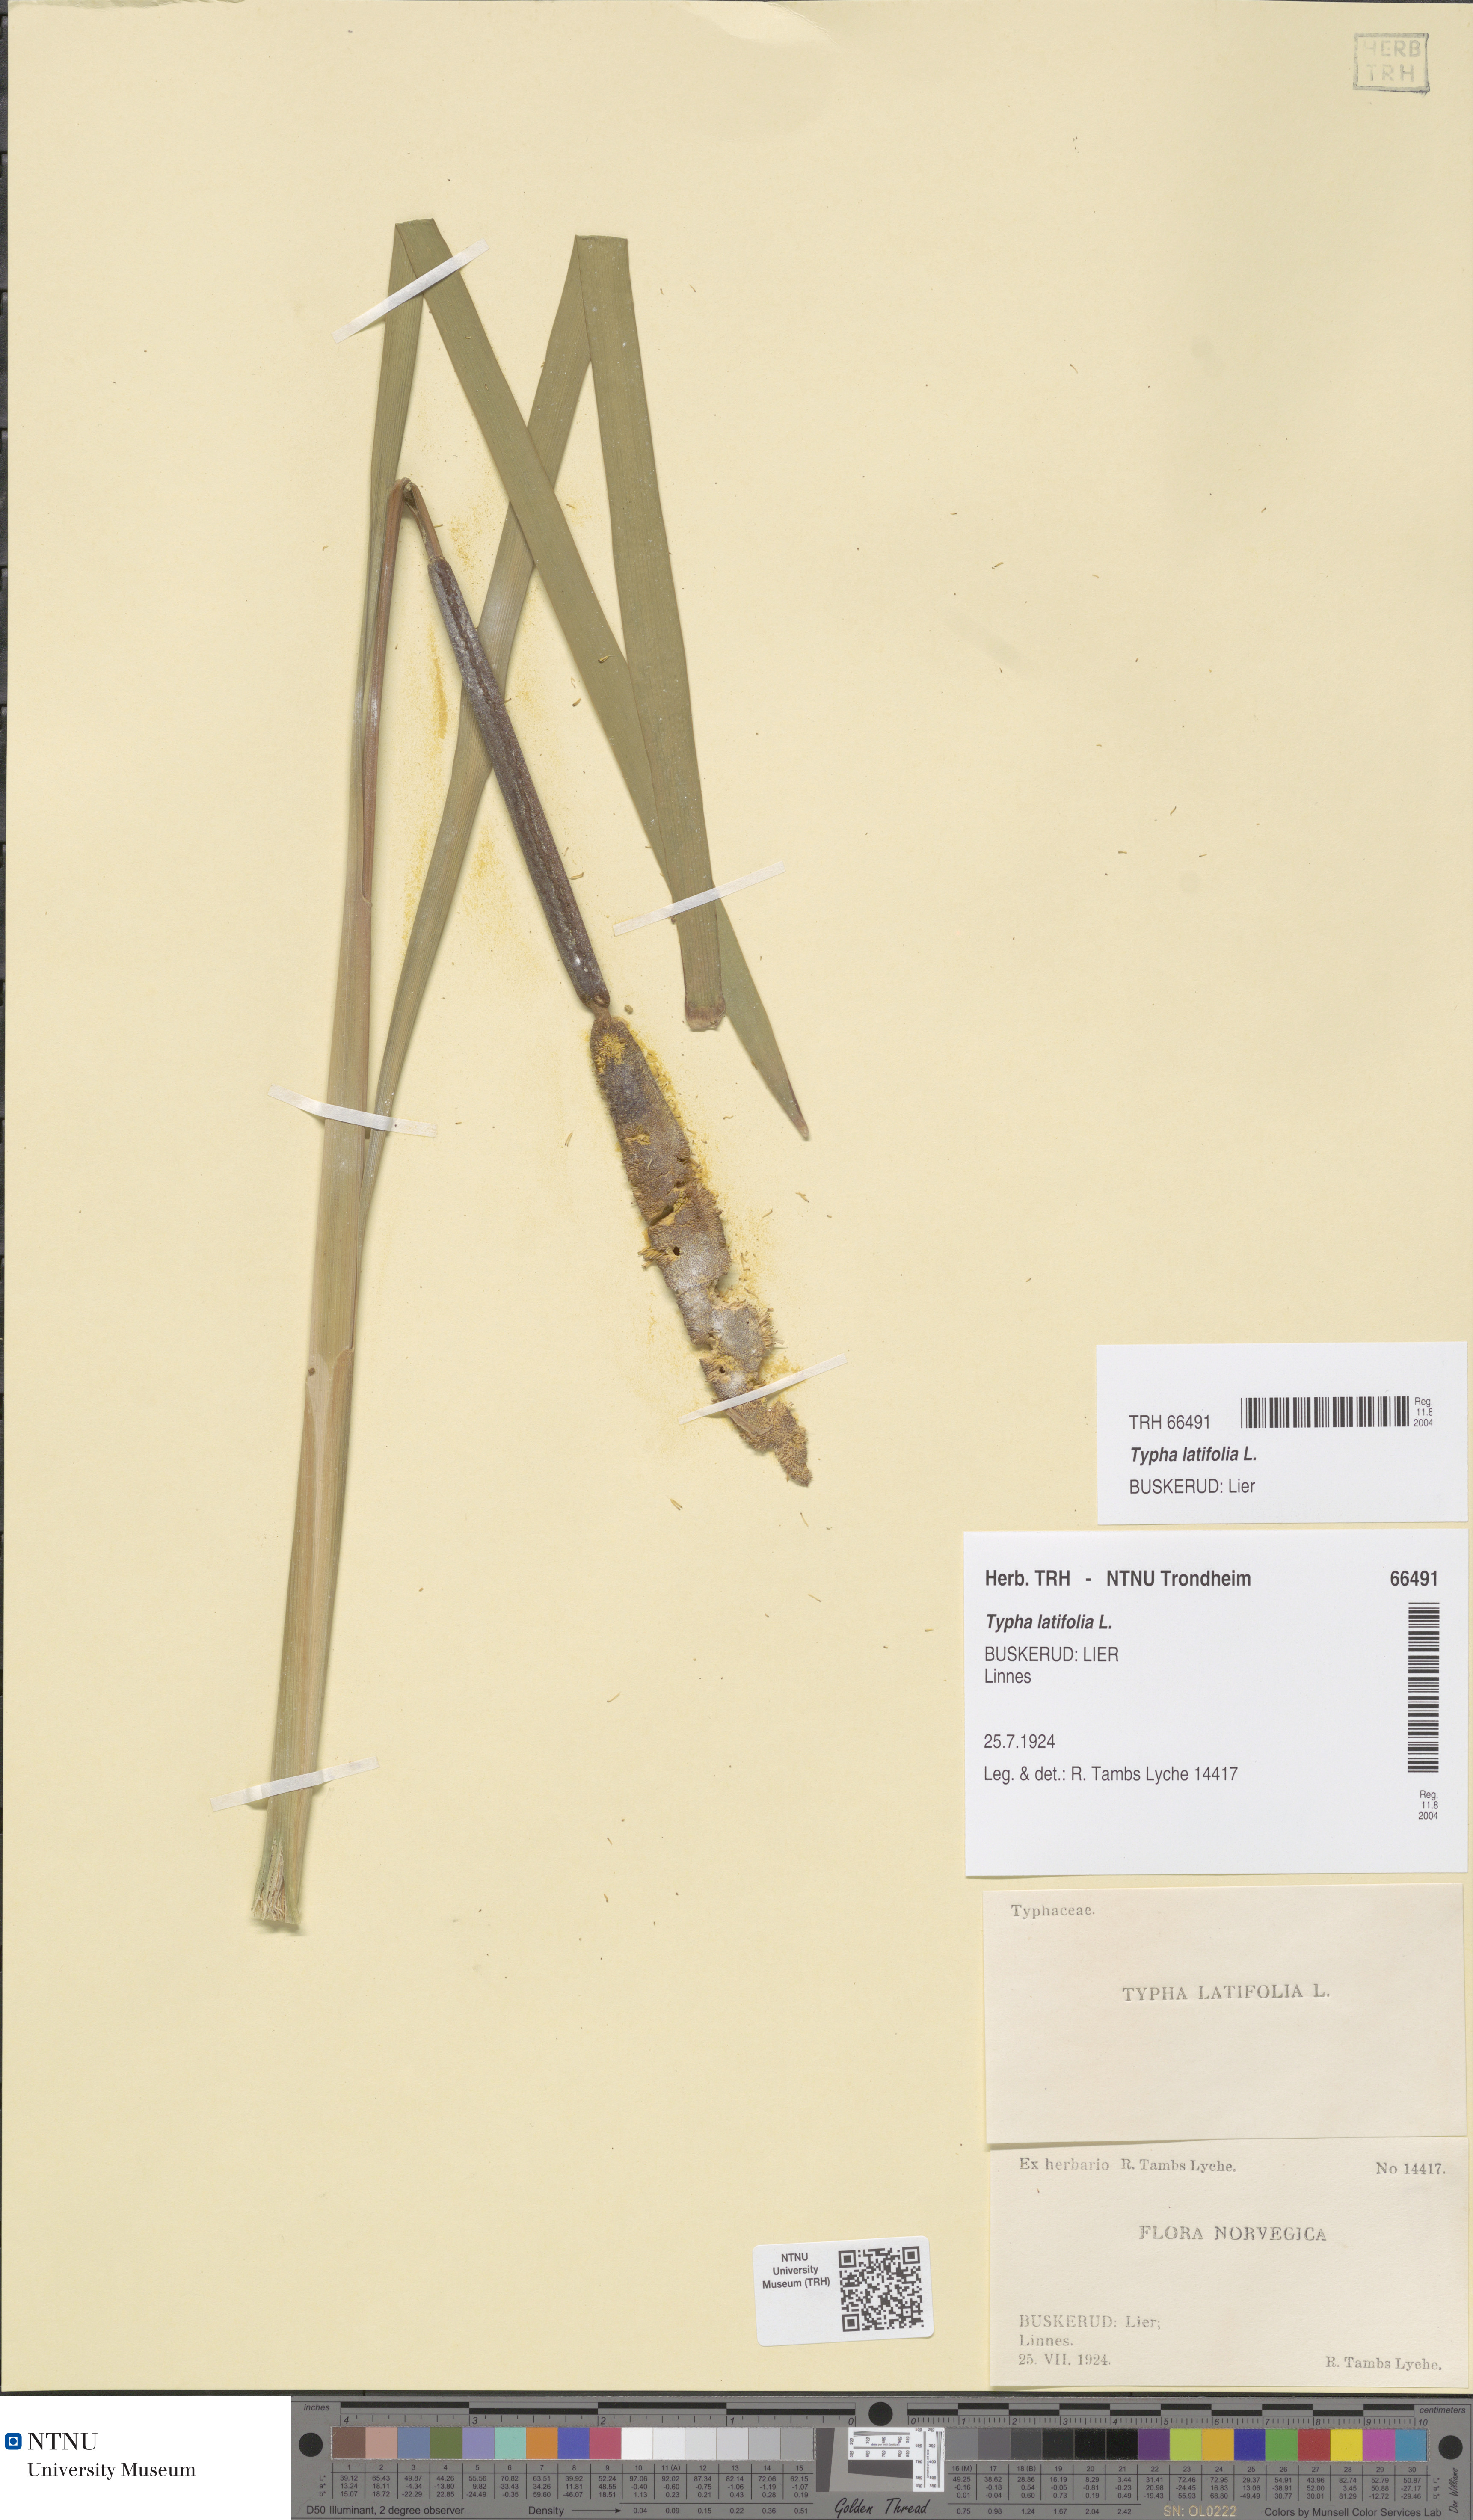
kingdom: Plantae
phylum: Tracheophyta
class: Liliopsida
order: Poales
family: Typhaceae
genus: Typha
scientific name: Typha latifolia
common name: Broadleaf cattail
